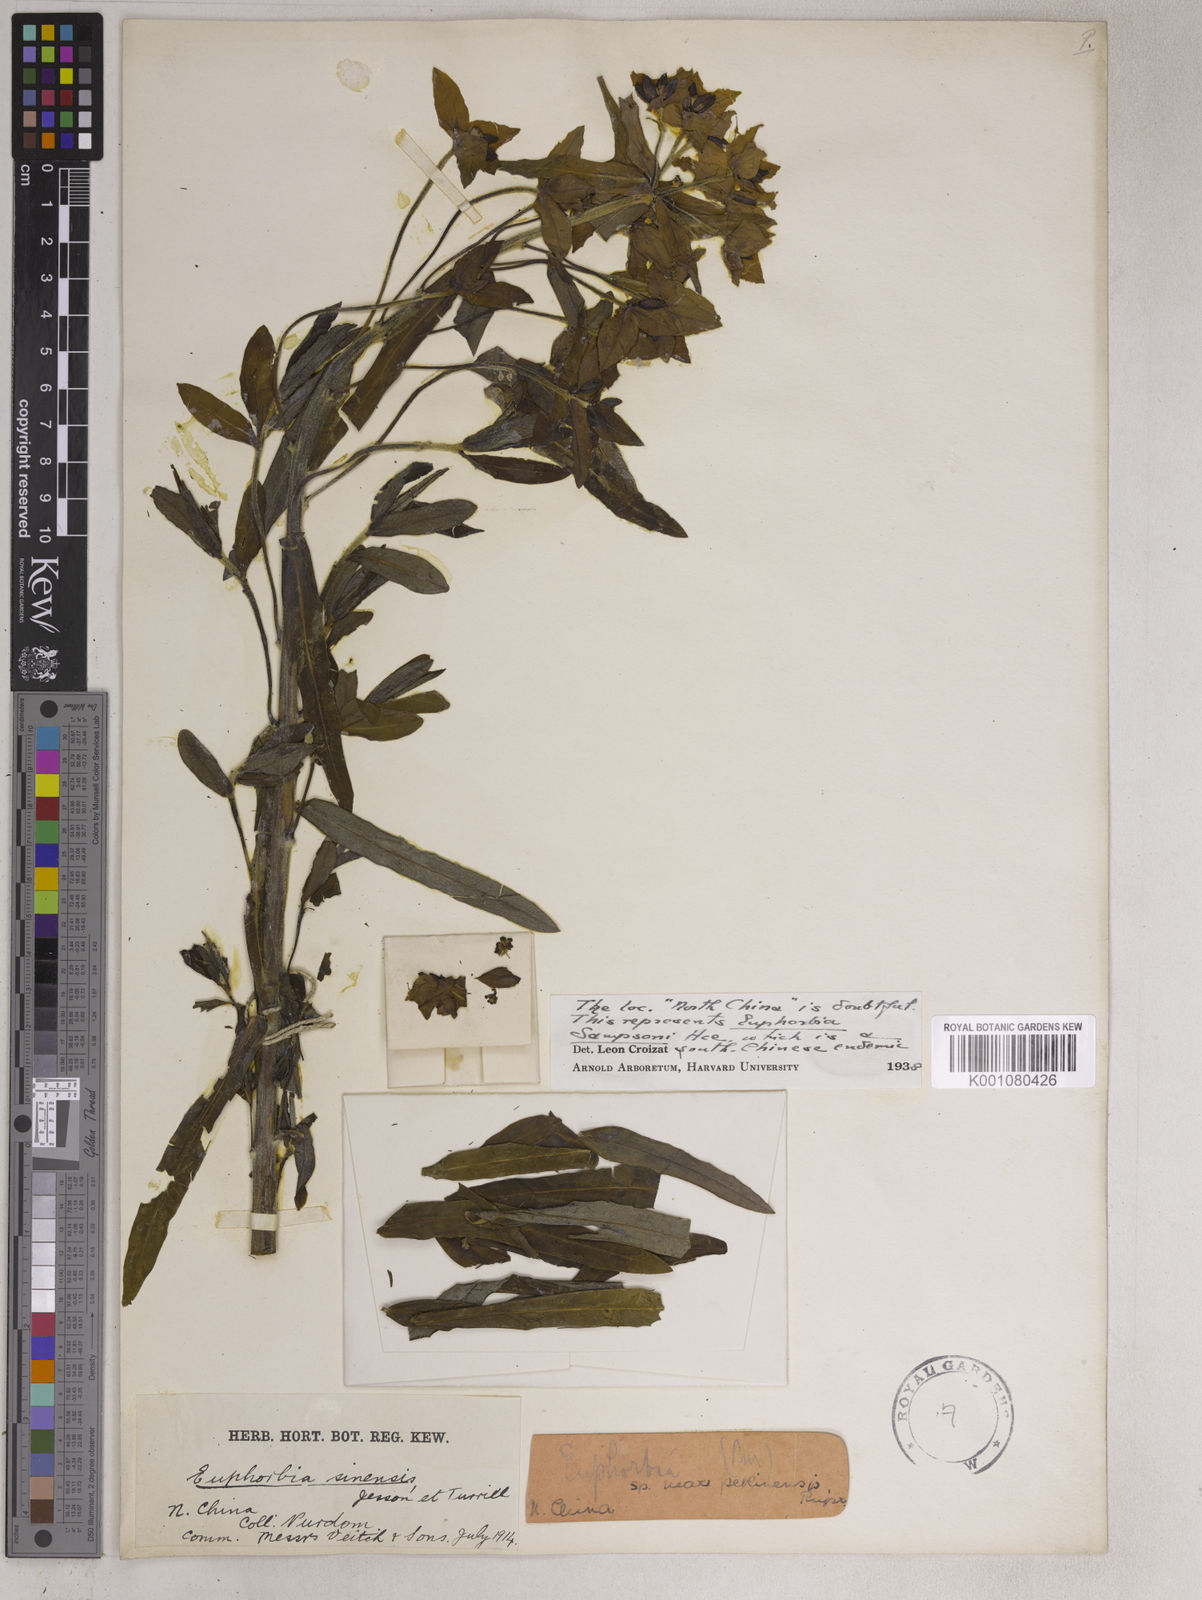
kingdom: Plantae
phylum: Tracheophyta
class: Magnoliopsida
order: Malpighiales
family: Euphorbiaceae
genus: Euphorbia
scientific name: Euphorbia pekinensis
